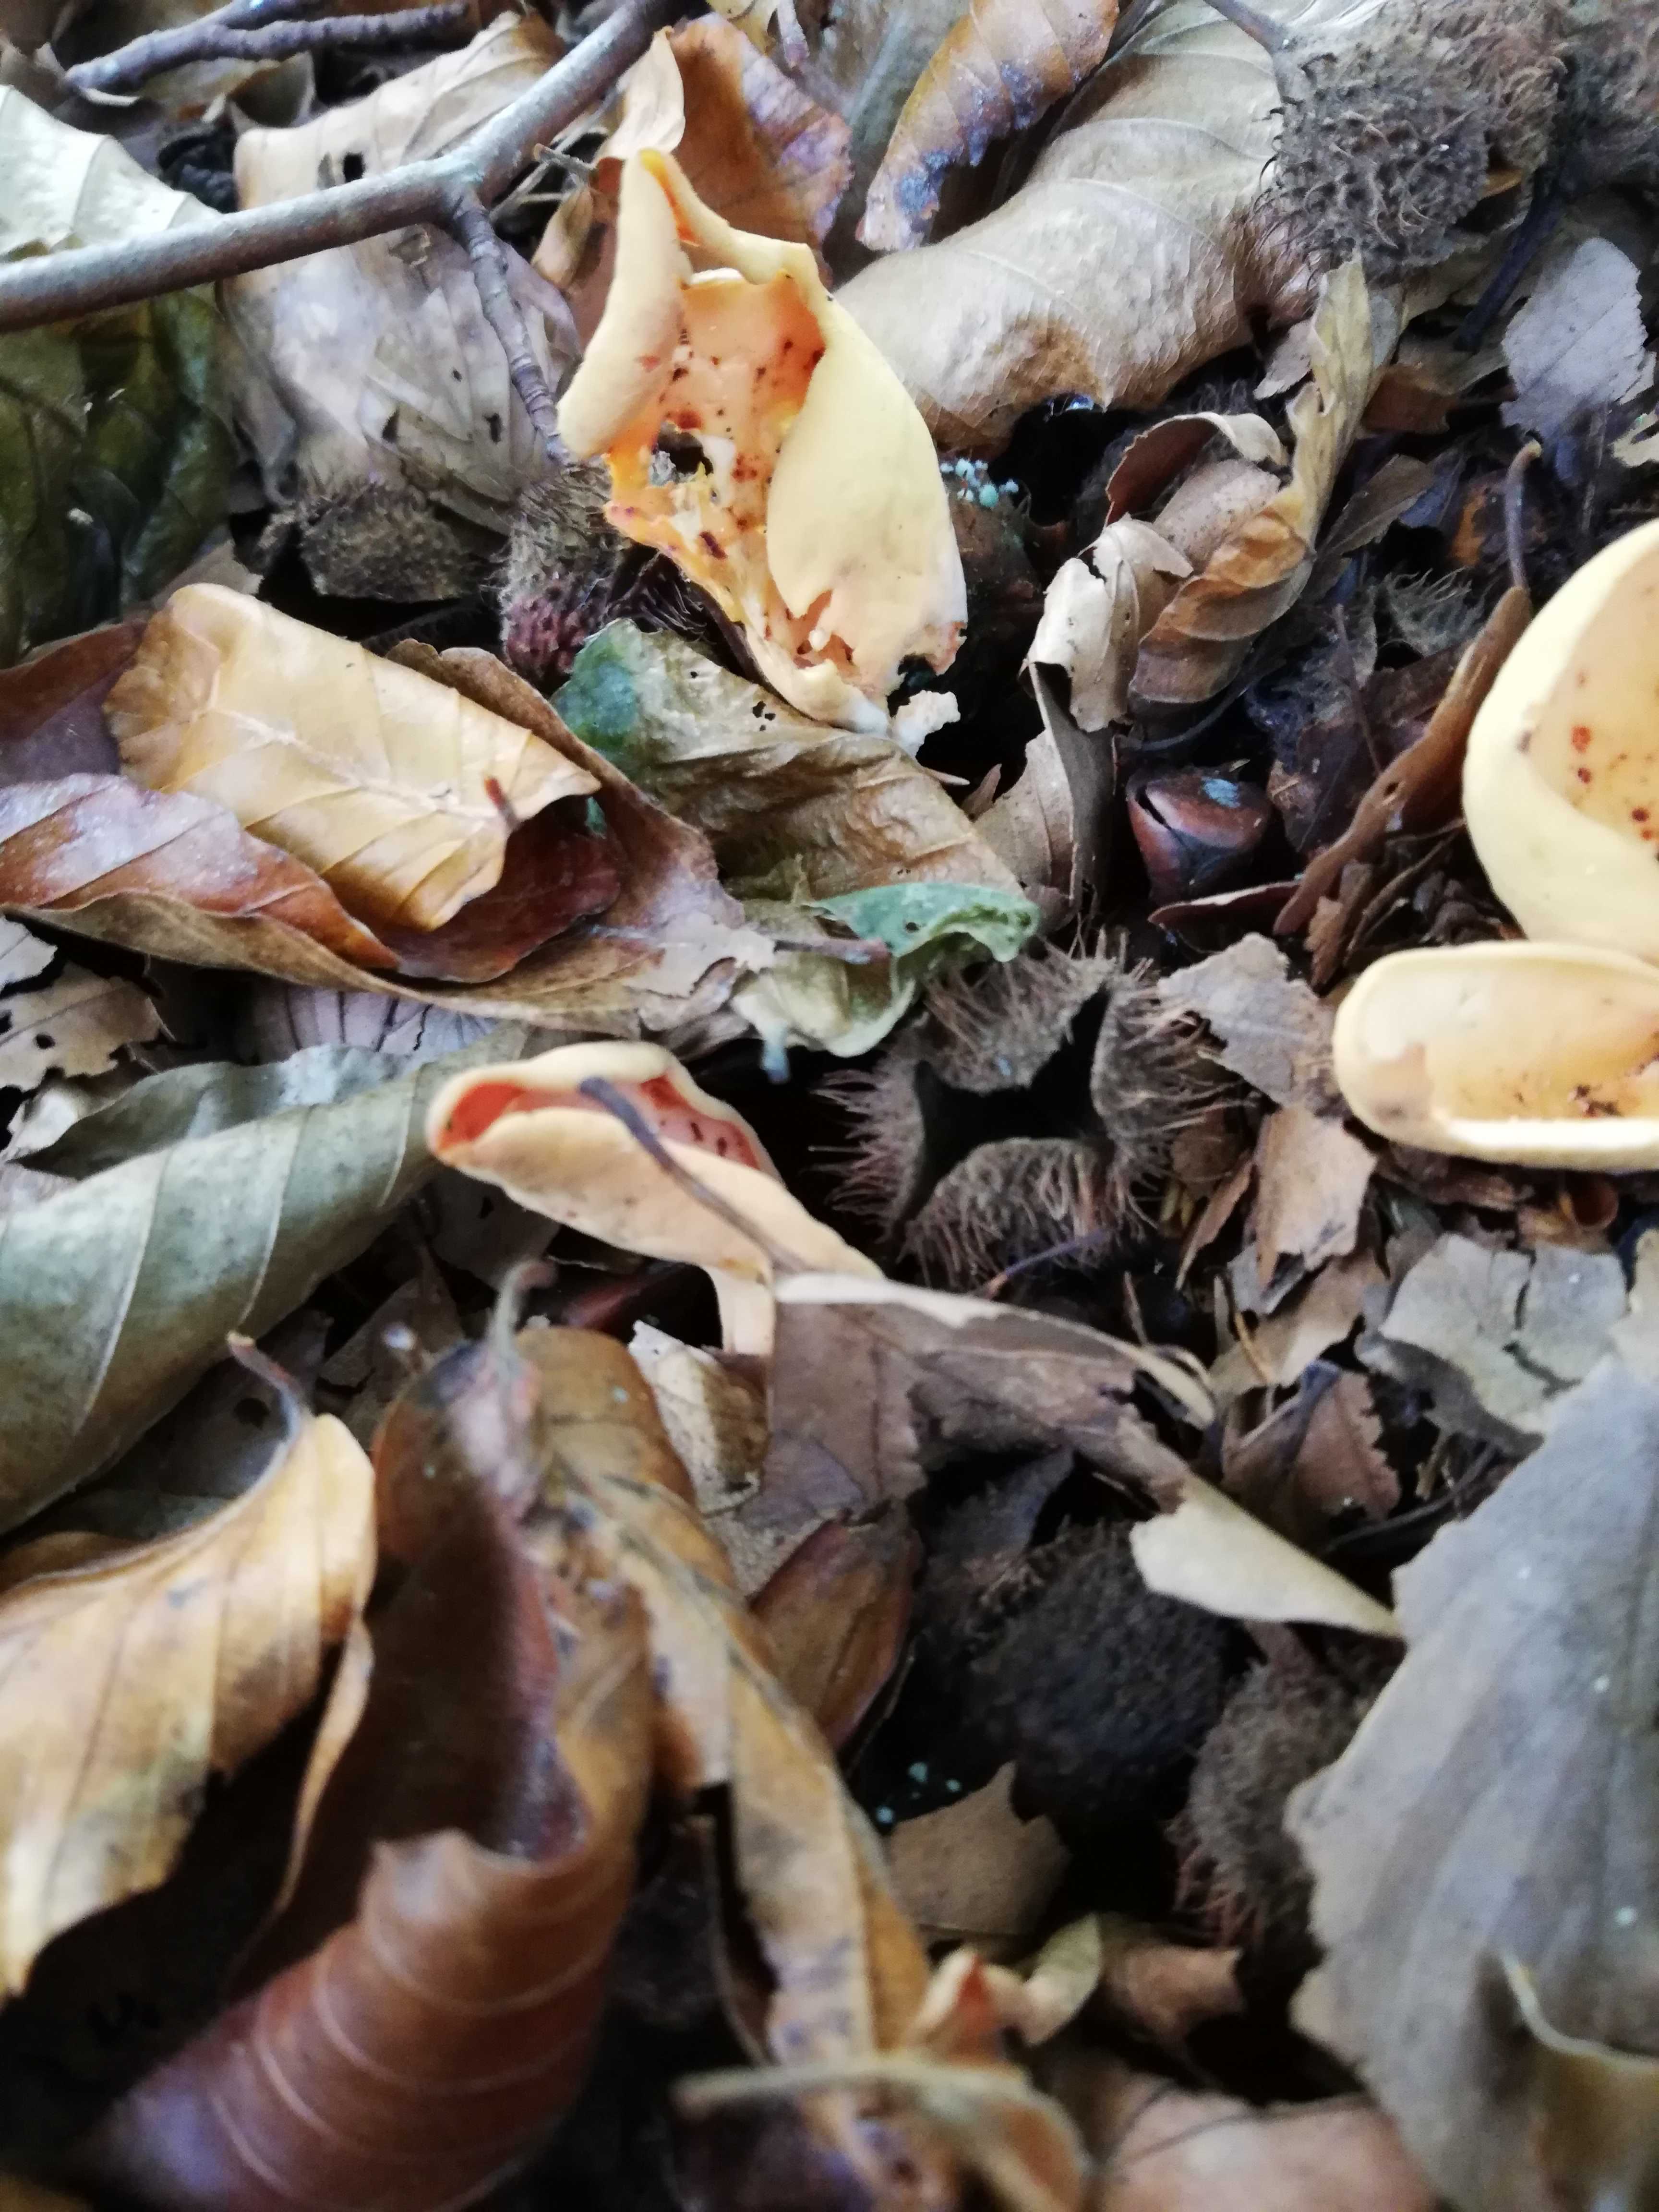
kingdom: Fungi
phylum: Ascomycota
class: Pezizomycetes
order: Pezizales
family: Otideaceae
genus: Otidea
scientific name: Otidea onotica
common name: æsel-ørebæger
